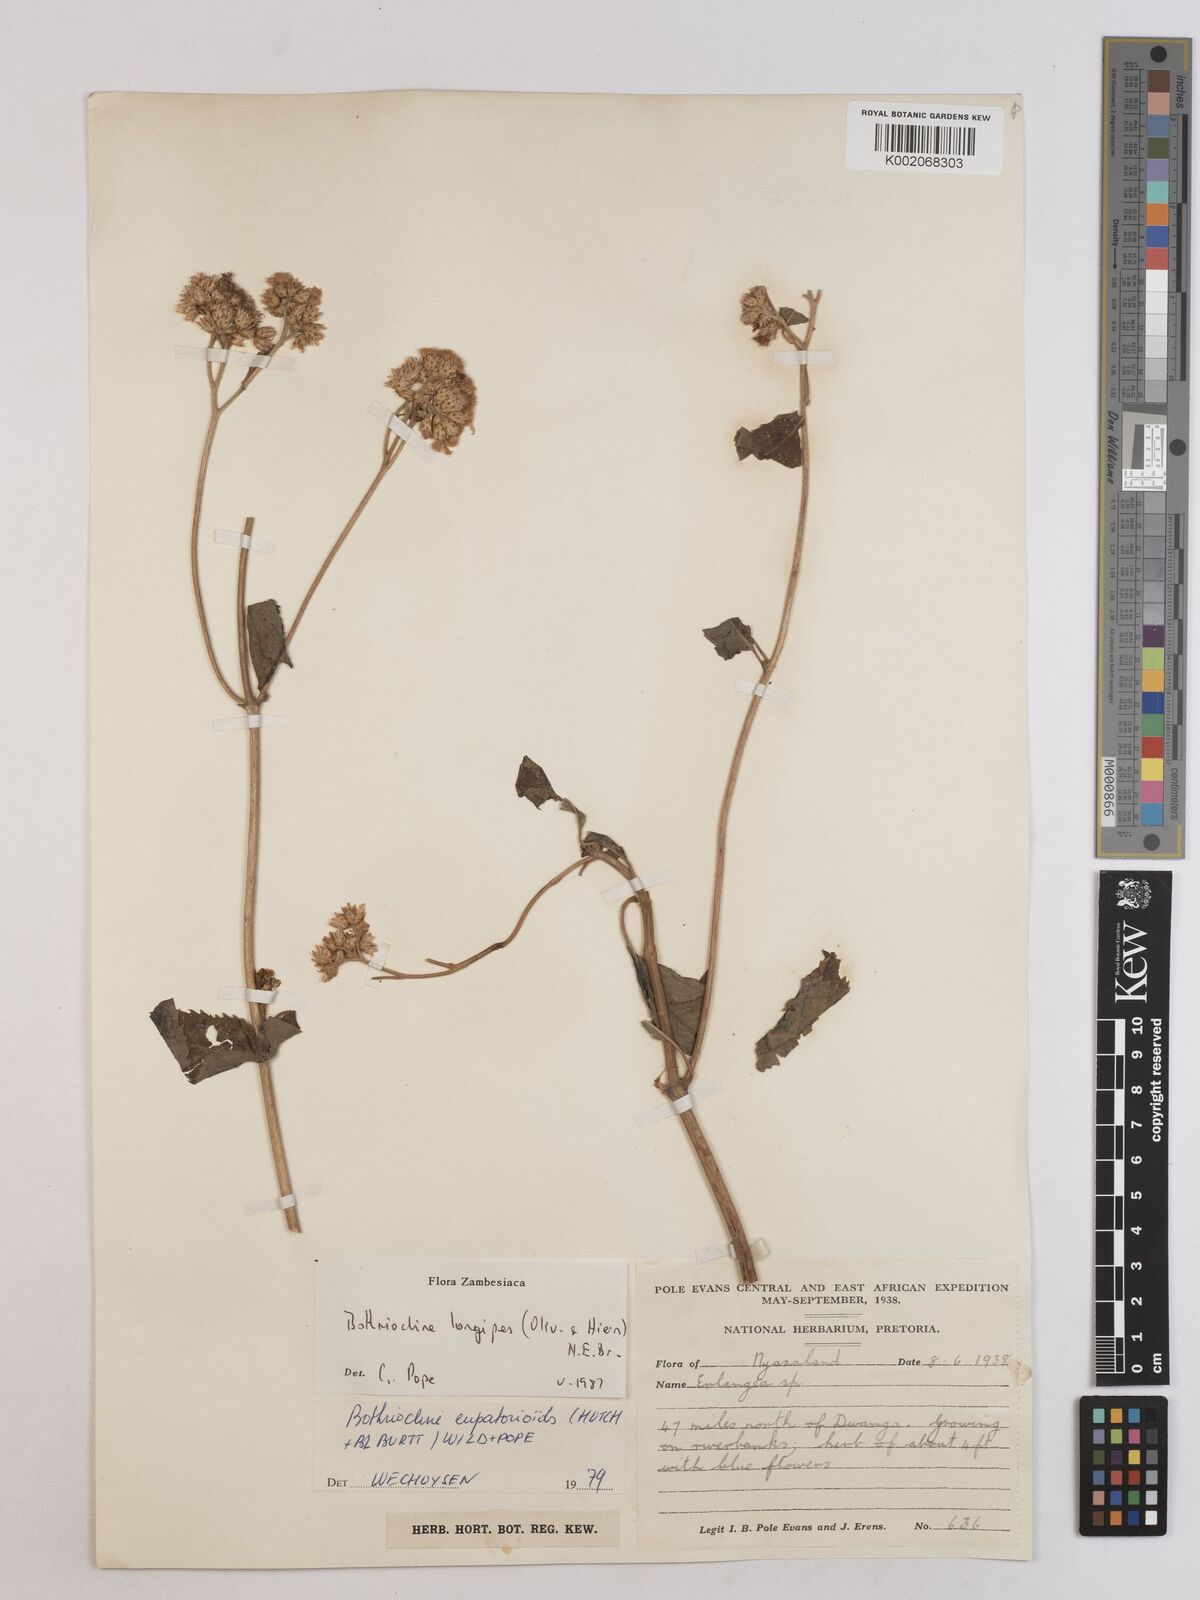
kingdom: Plantae
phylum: Tracheophyta
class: Magnoliopsida
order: Asterales
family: Asteraceae
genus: Bothriocline
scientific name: Bothriocline longipes
